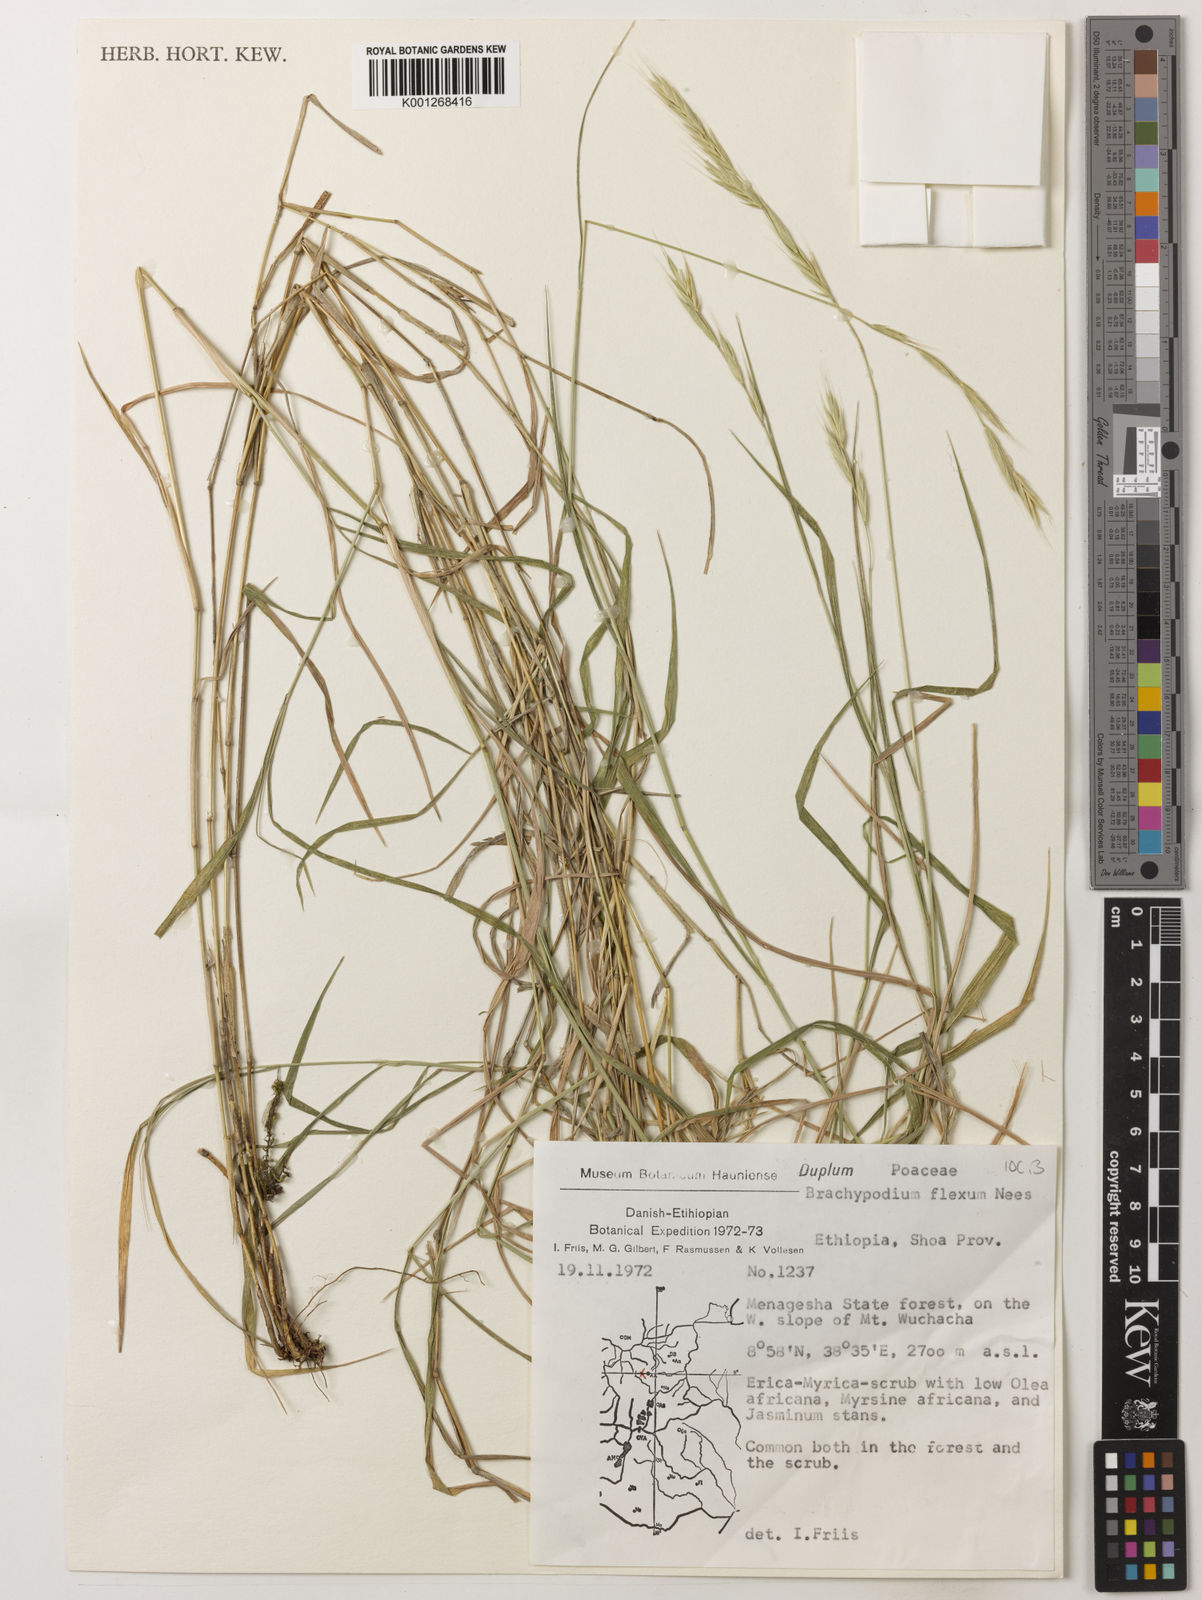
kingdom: Plantae
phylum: Tracheophyta
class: Liliopsida
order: Poales
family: Poaceae
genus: Brachypodium
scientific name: Brachypodium flexum
